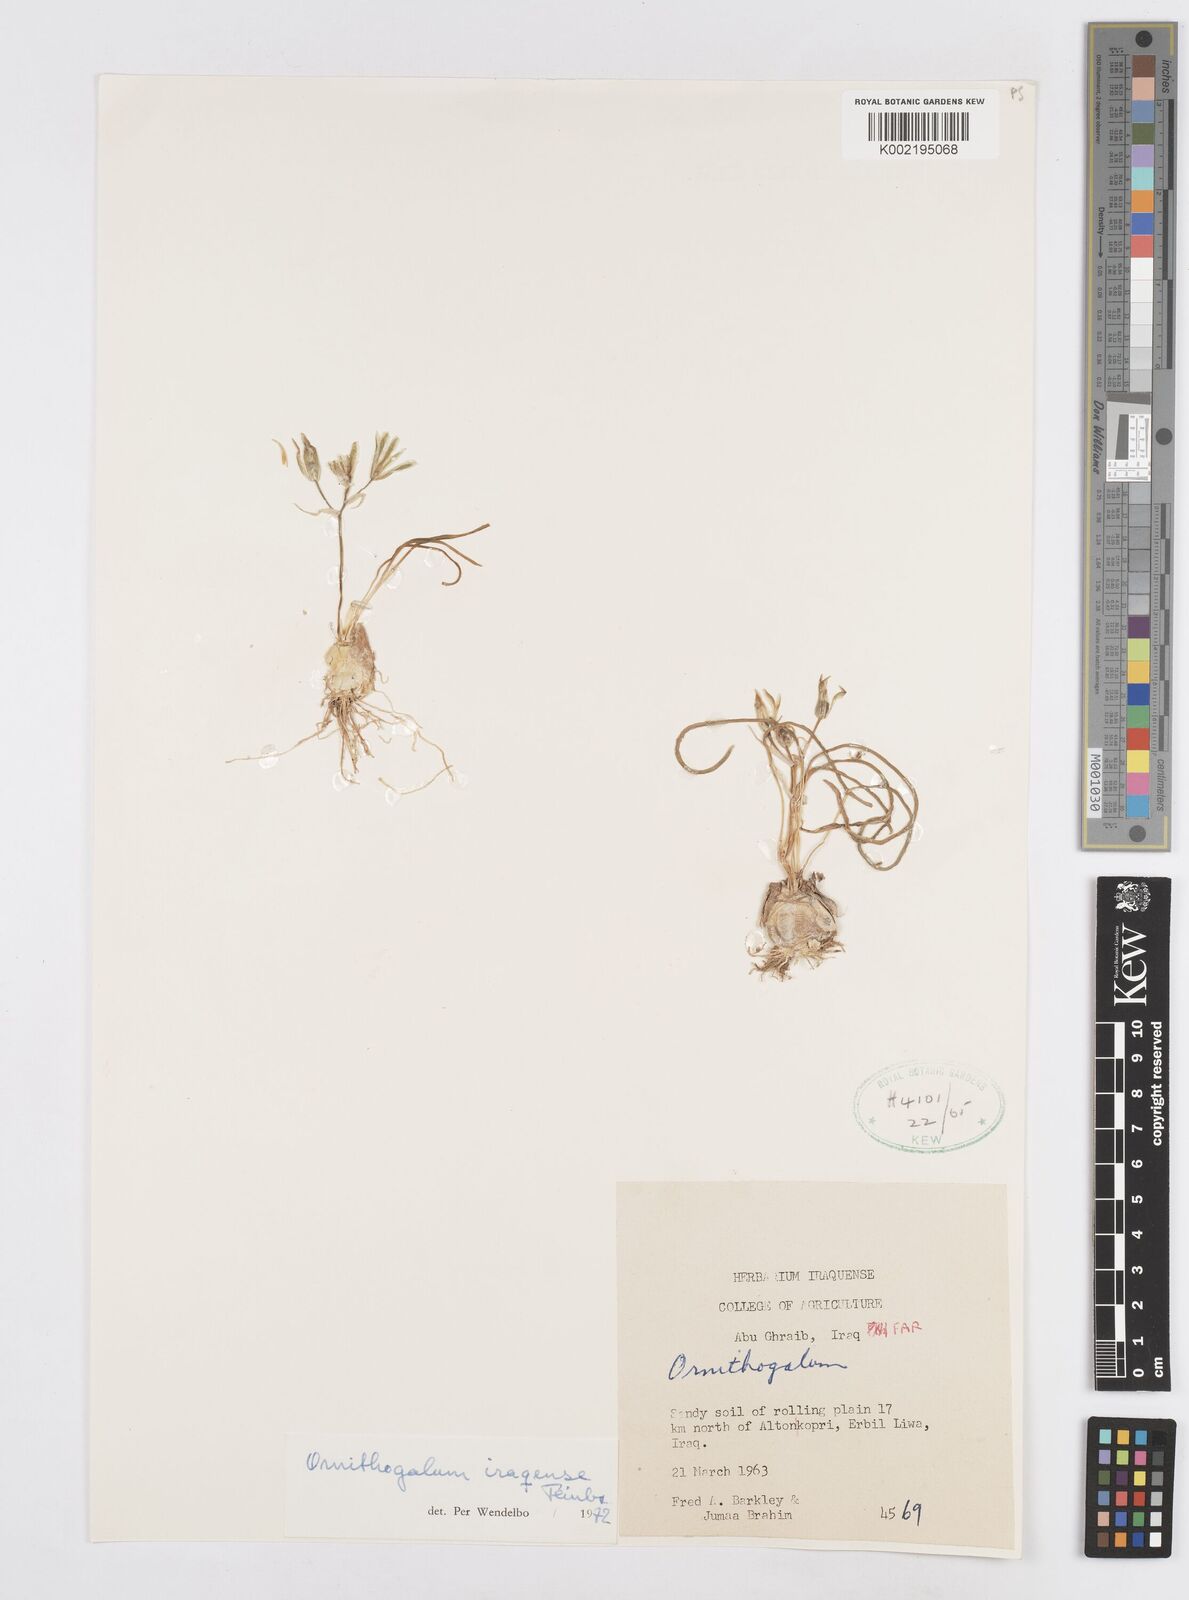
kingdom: Plantae
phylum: Tracheophyta
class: Liliopsida
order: Asparagales
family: Asparagaceae
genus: Ornithogalum
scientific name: Ornithogalum iraqense
